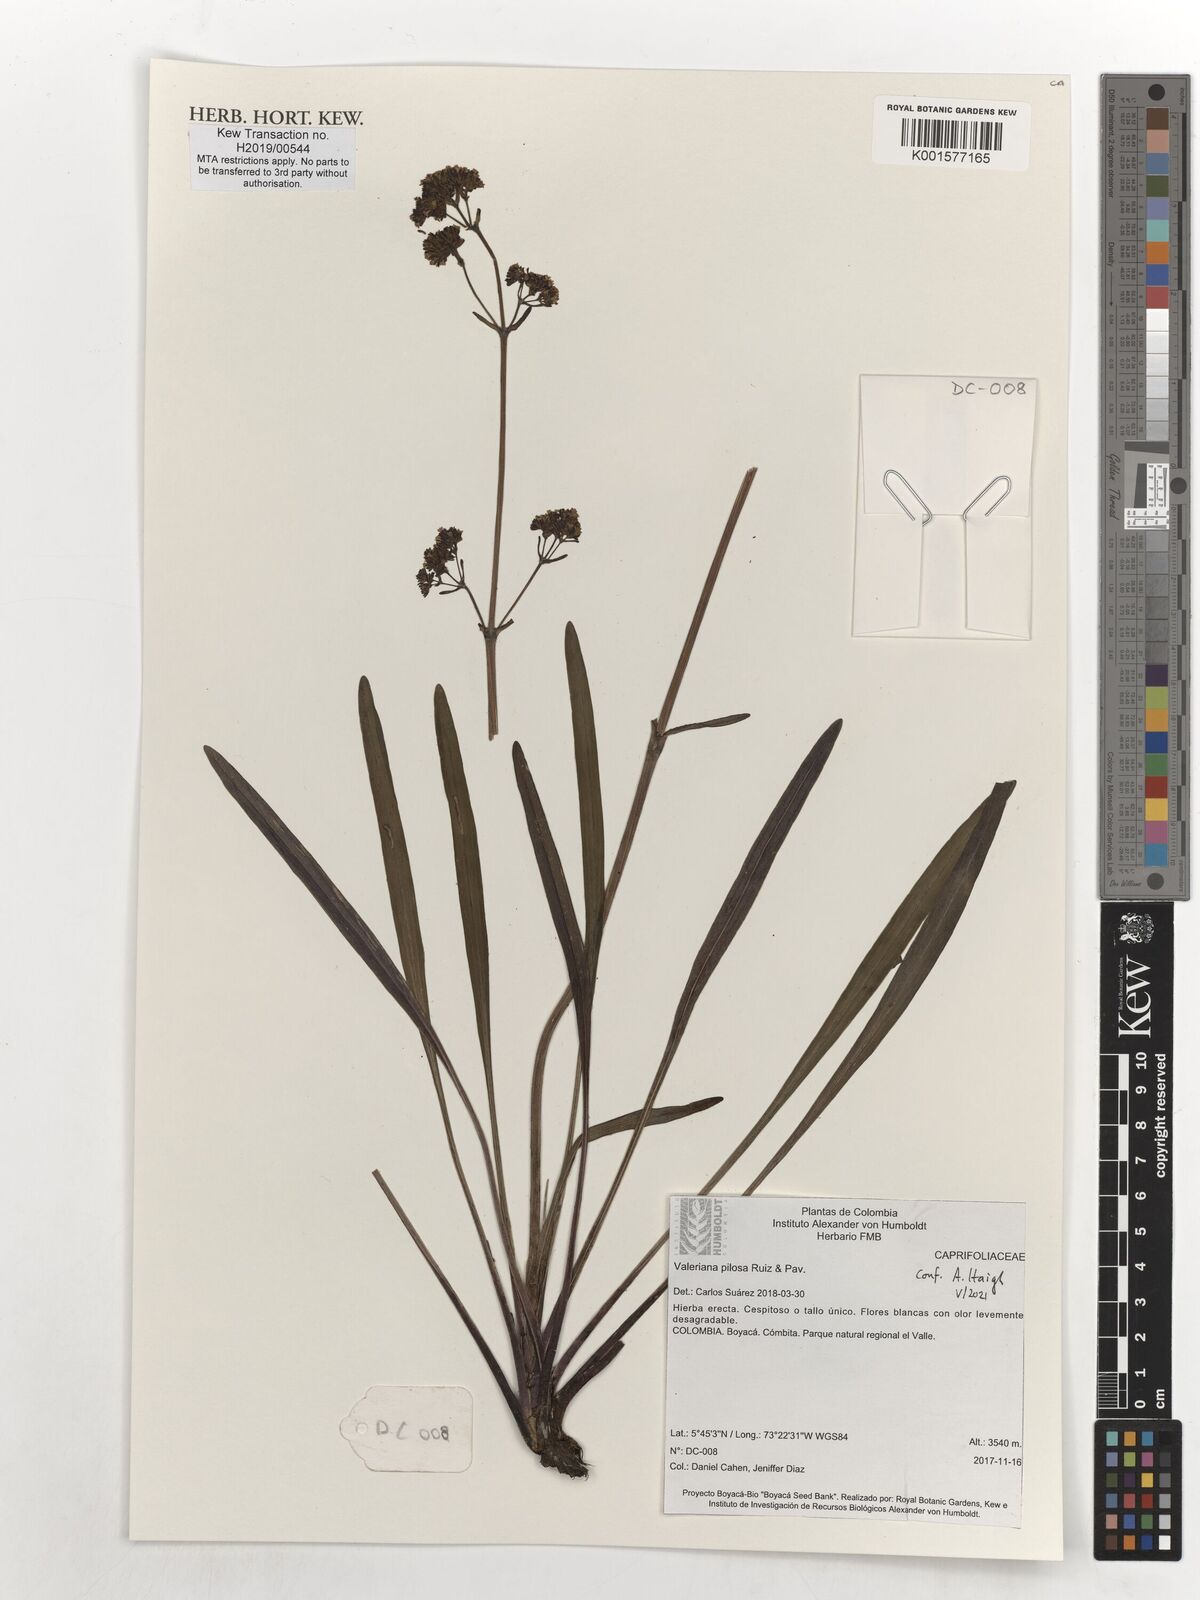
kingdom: Plantae
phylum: Tracheophyta
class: Magnoliopsida
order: Dipsacales
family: Caprifoliaceae
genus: Valeriana
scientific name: Valeriana pilosa
